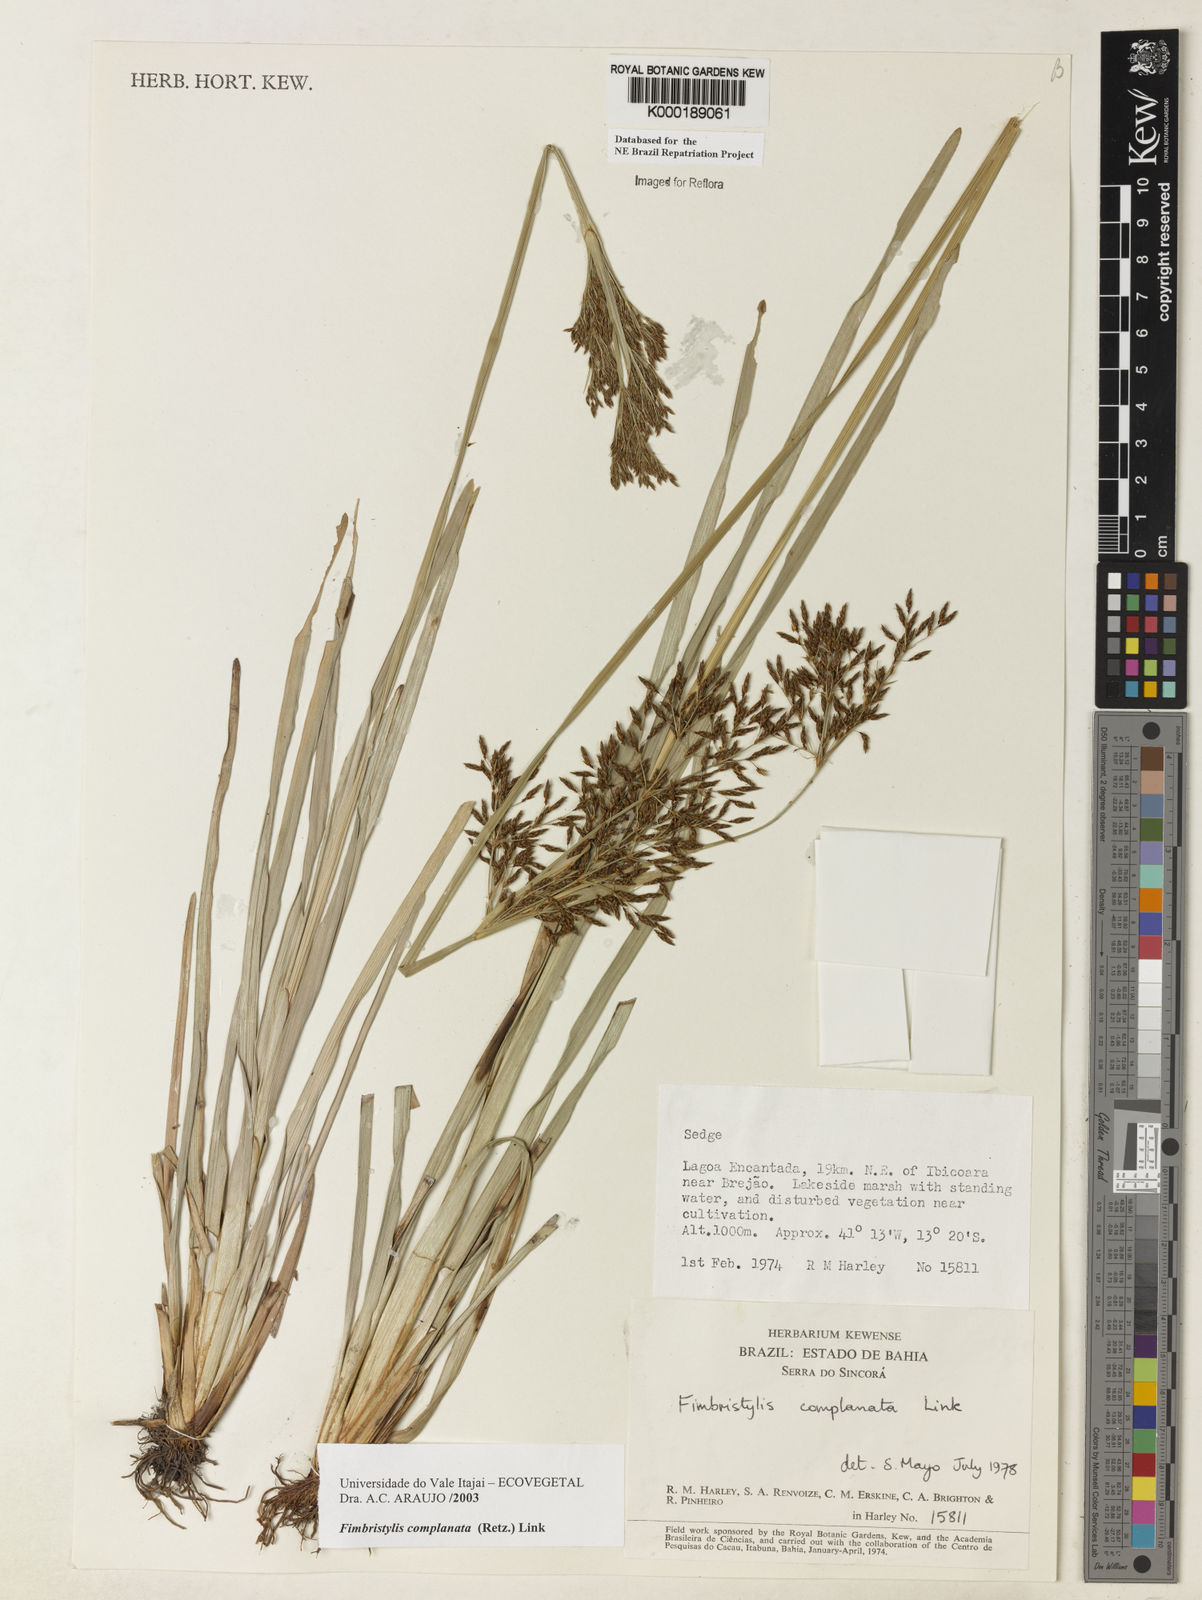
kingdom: Plantae
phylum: Tracheophyta
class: Liliopsida
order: Poales
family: Cyperaceae
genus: Fimbristylis
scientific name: Fimbristylis complanata
